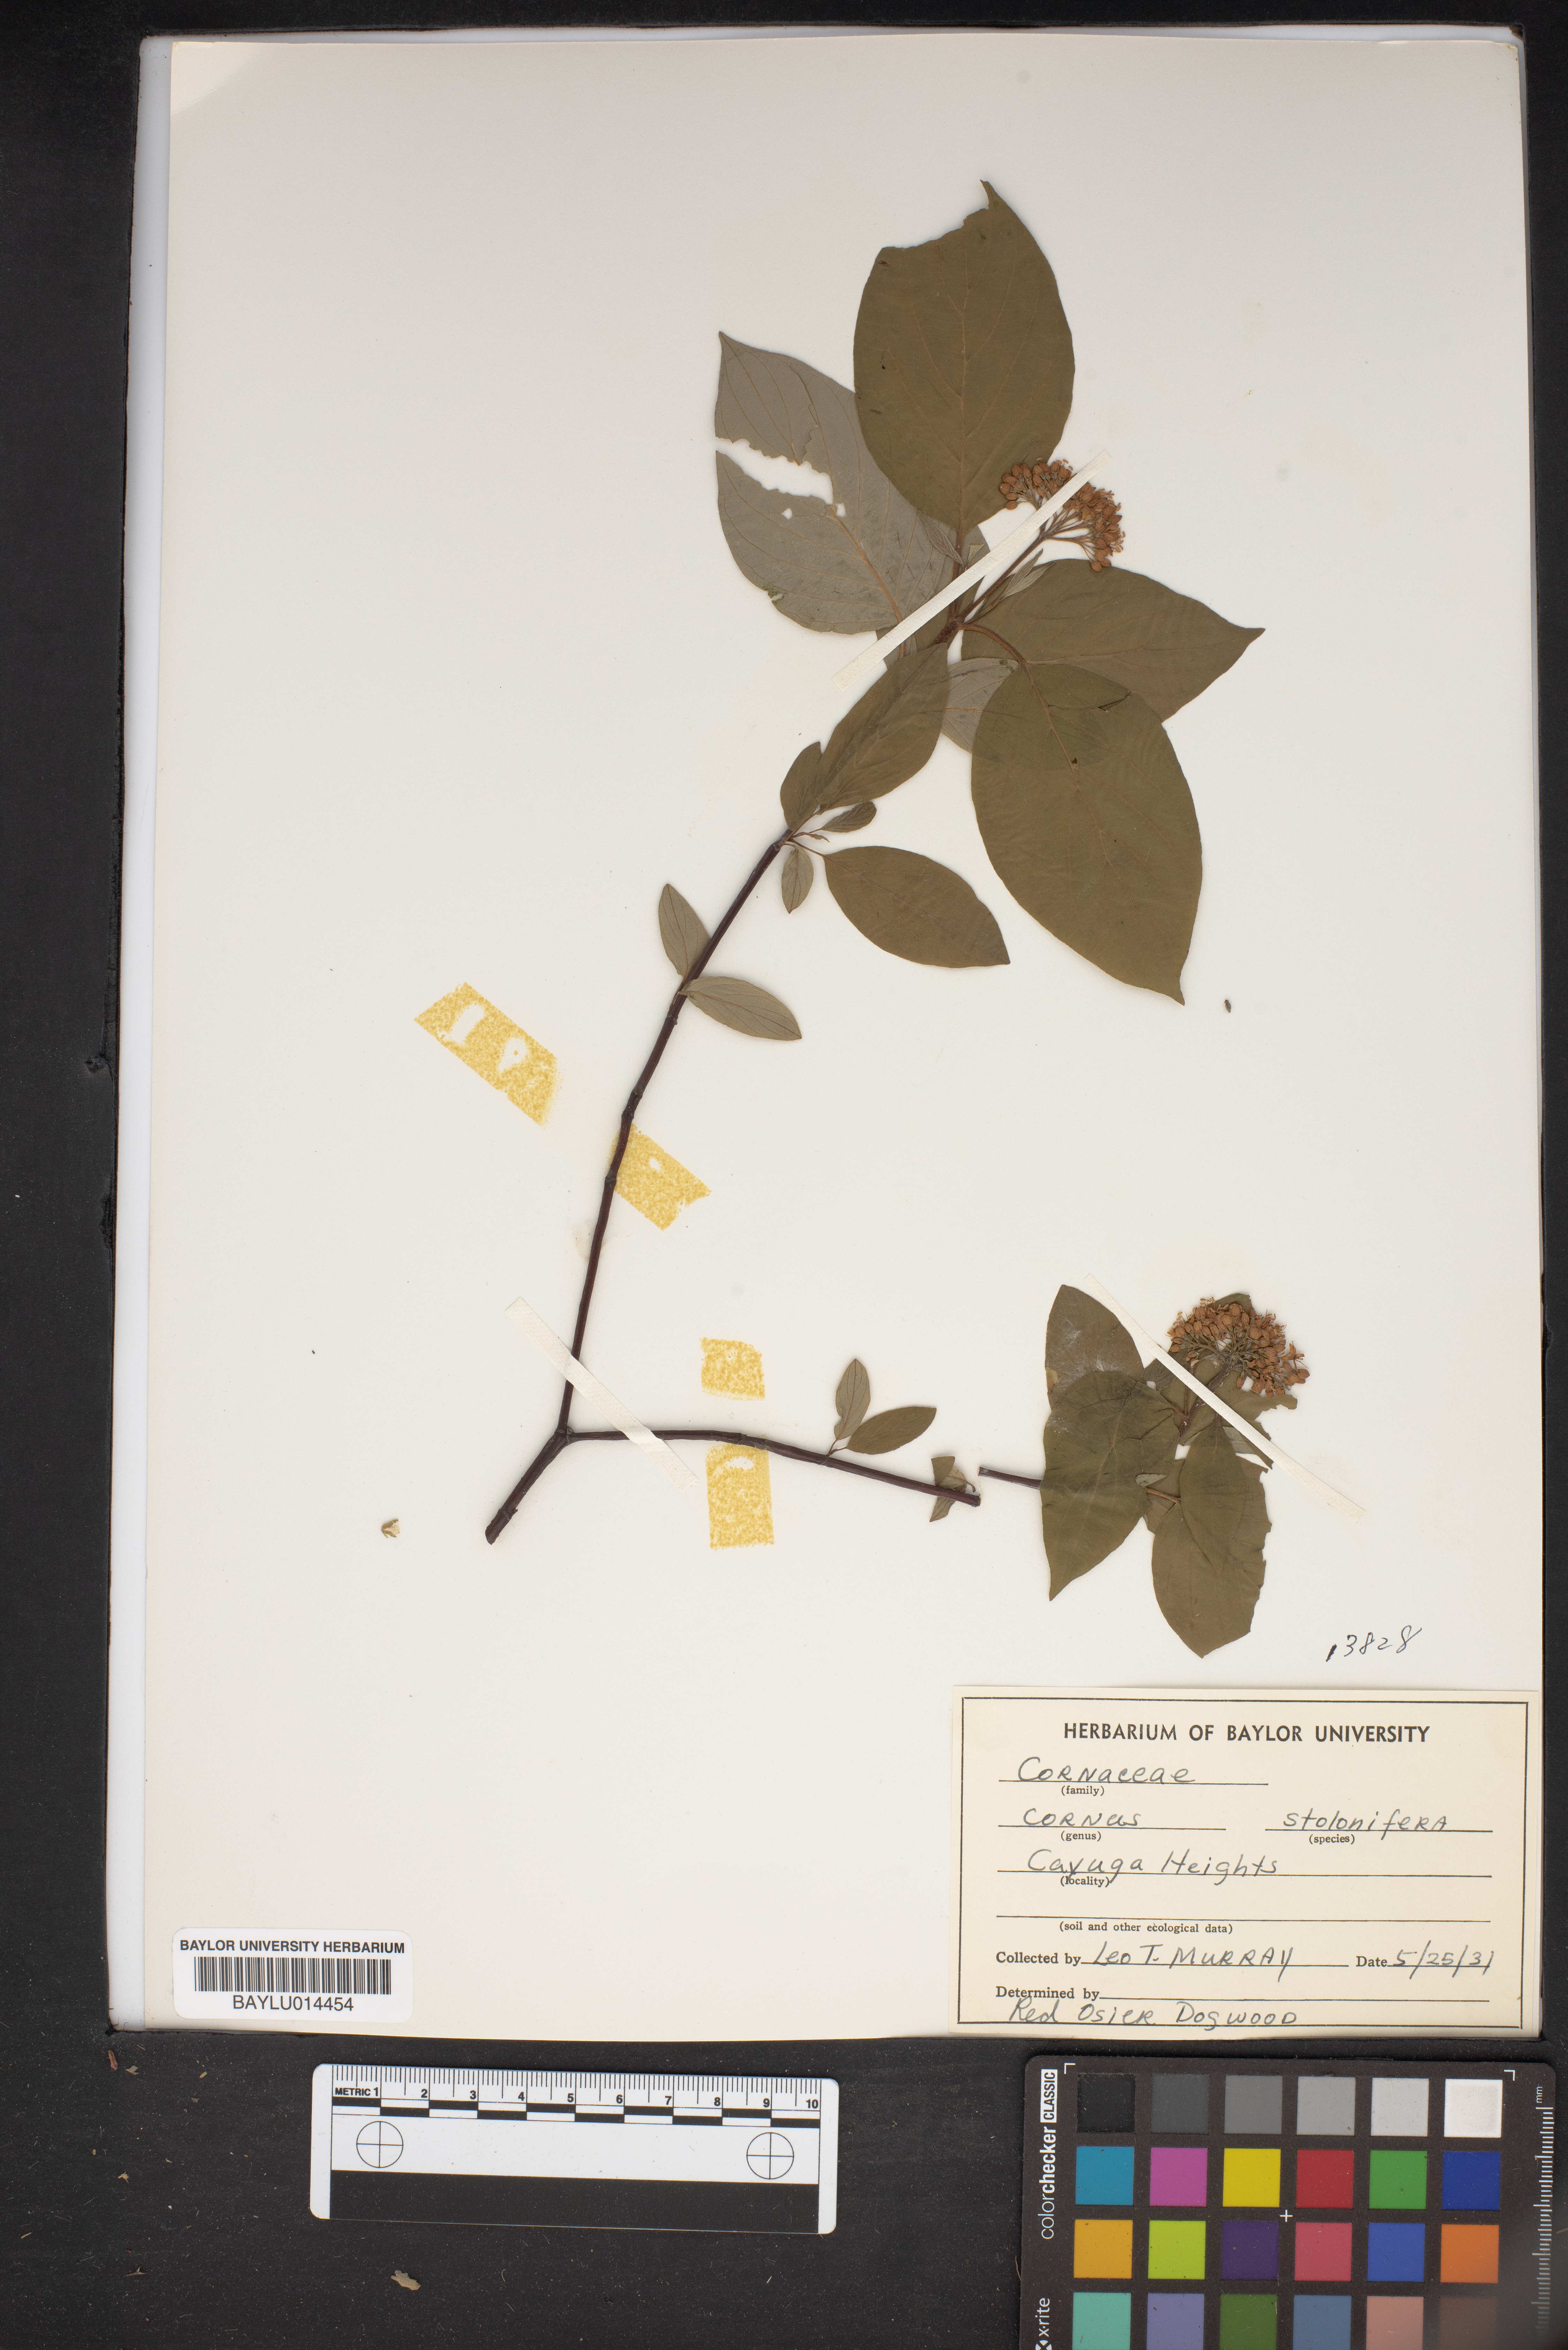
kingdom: Plantae
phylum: Tracheophyta
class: Magnoliopsida
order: Cornales
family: Cornaceae
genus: Cornus
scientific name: Cornus sericea
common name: Red-osier dogwood
